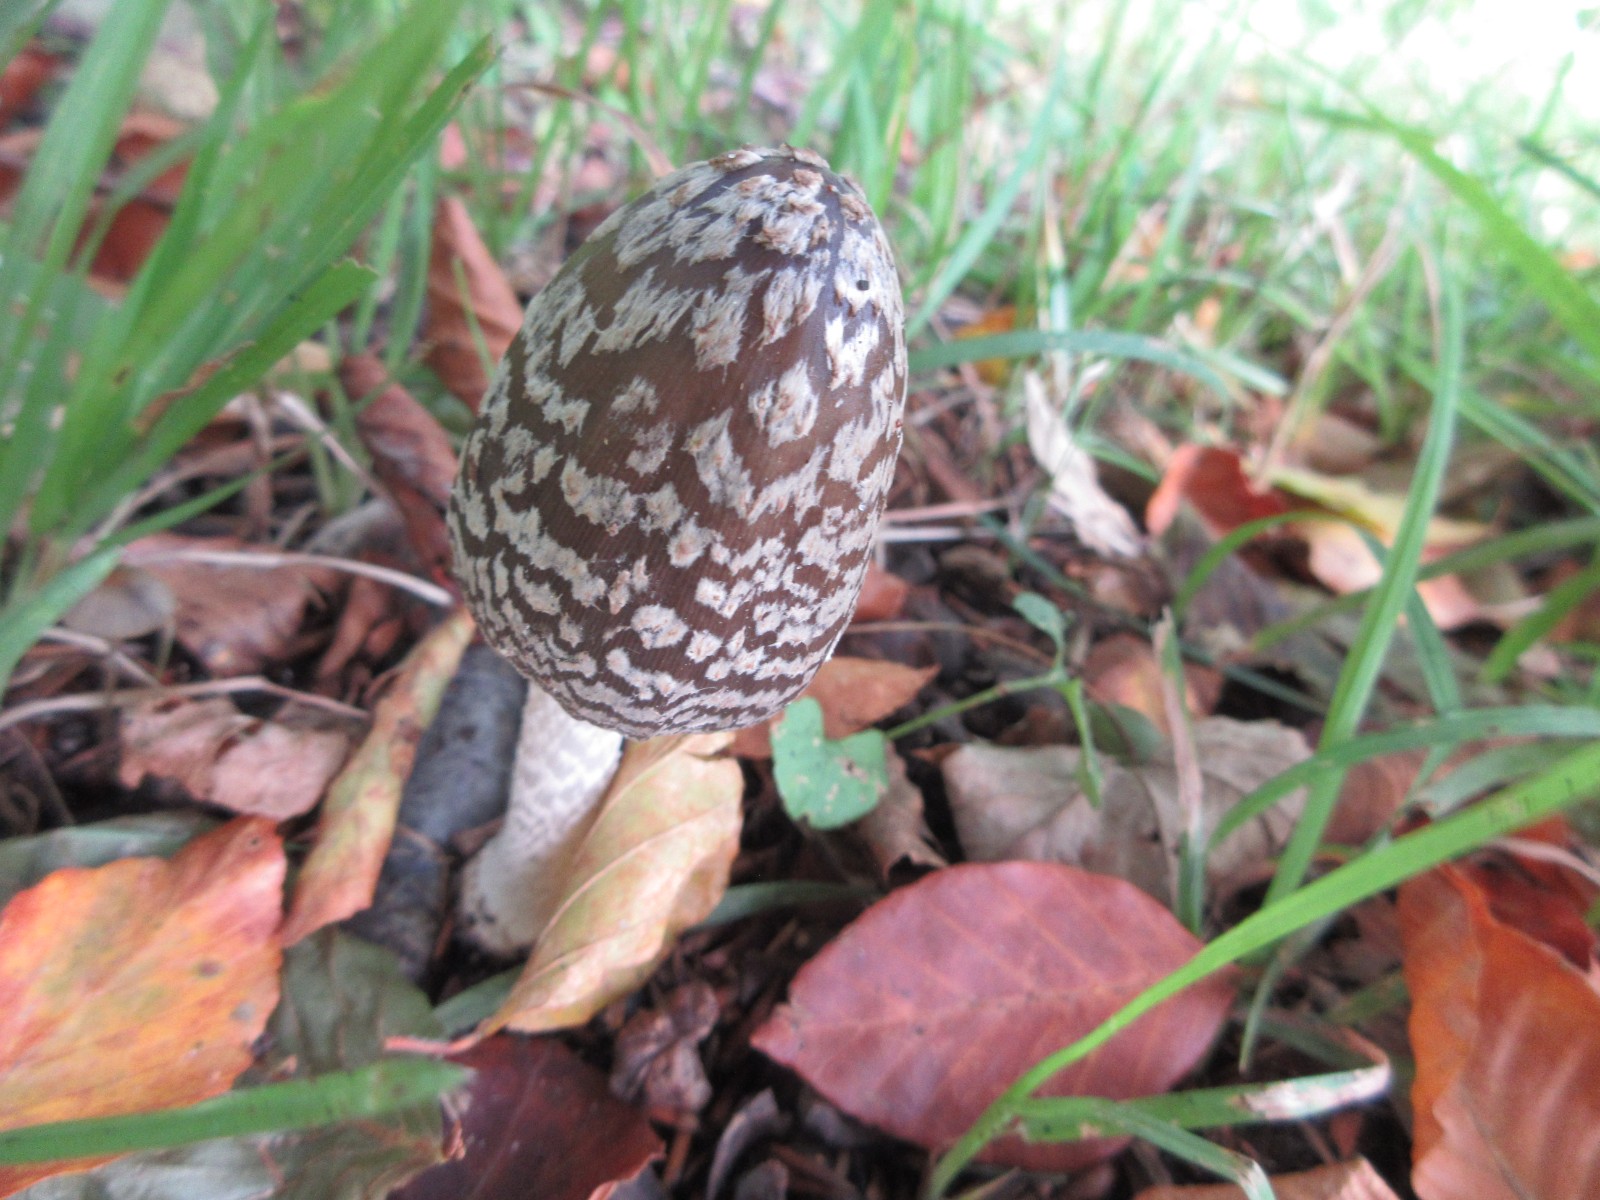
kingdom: Fungi
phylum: Basidiomycota
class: Agaricomycetes
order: Agaricales
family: Psathyrellaceae
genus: Coprinopsis
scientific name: Coprinopsis picacea
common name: skade-blækhat
